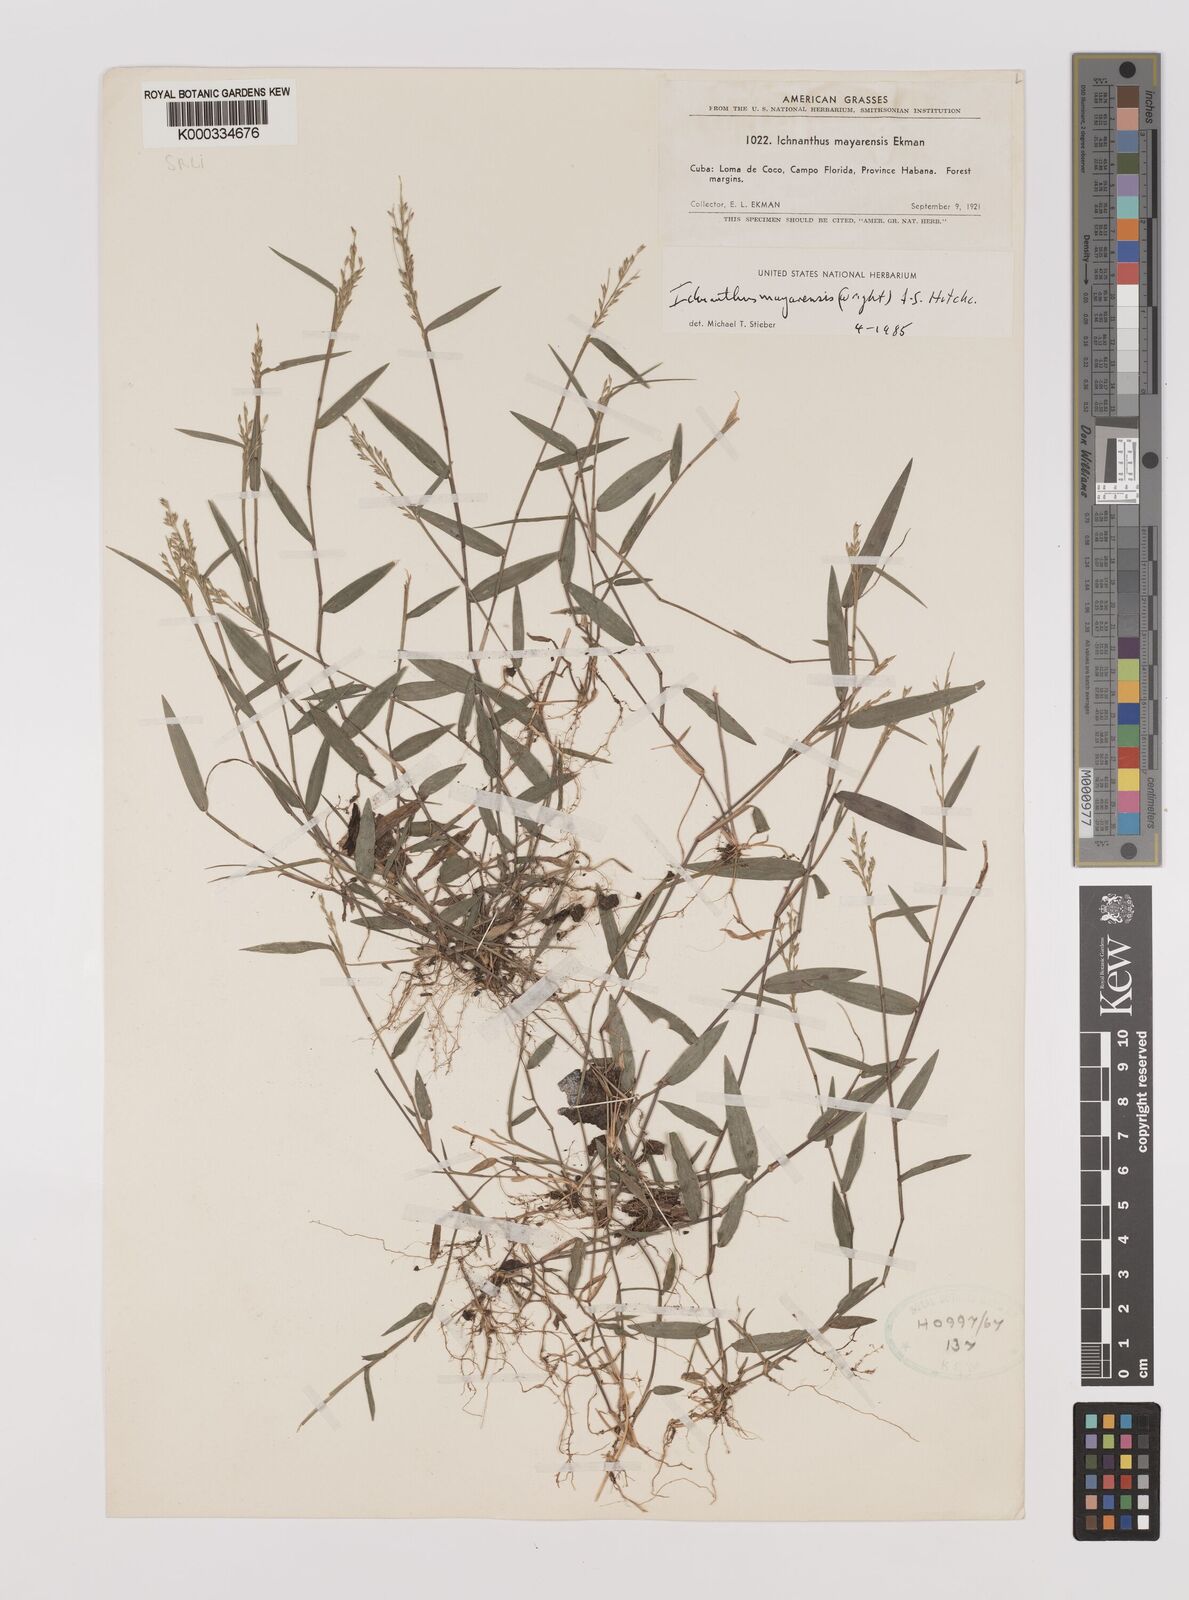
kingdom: Plantae
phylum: Tracheophyta
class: Liliopsida
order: Poales
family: Poaceae
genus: Oedochloa
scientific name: Oedochloa mayarensis
